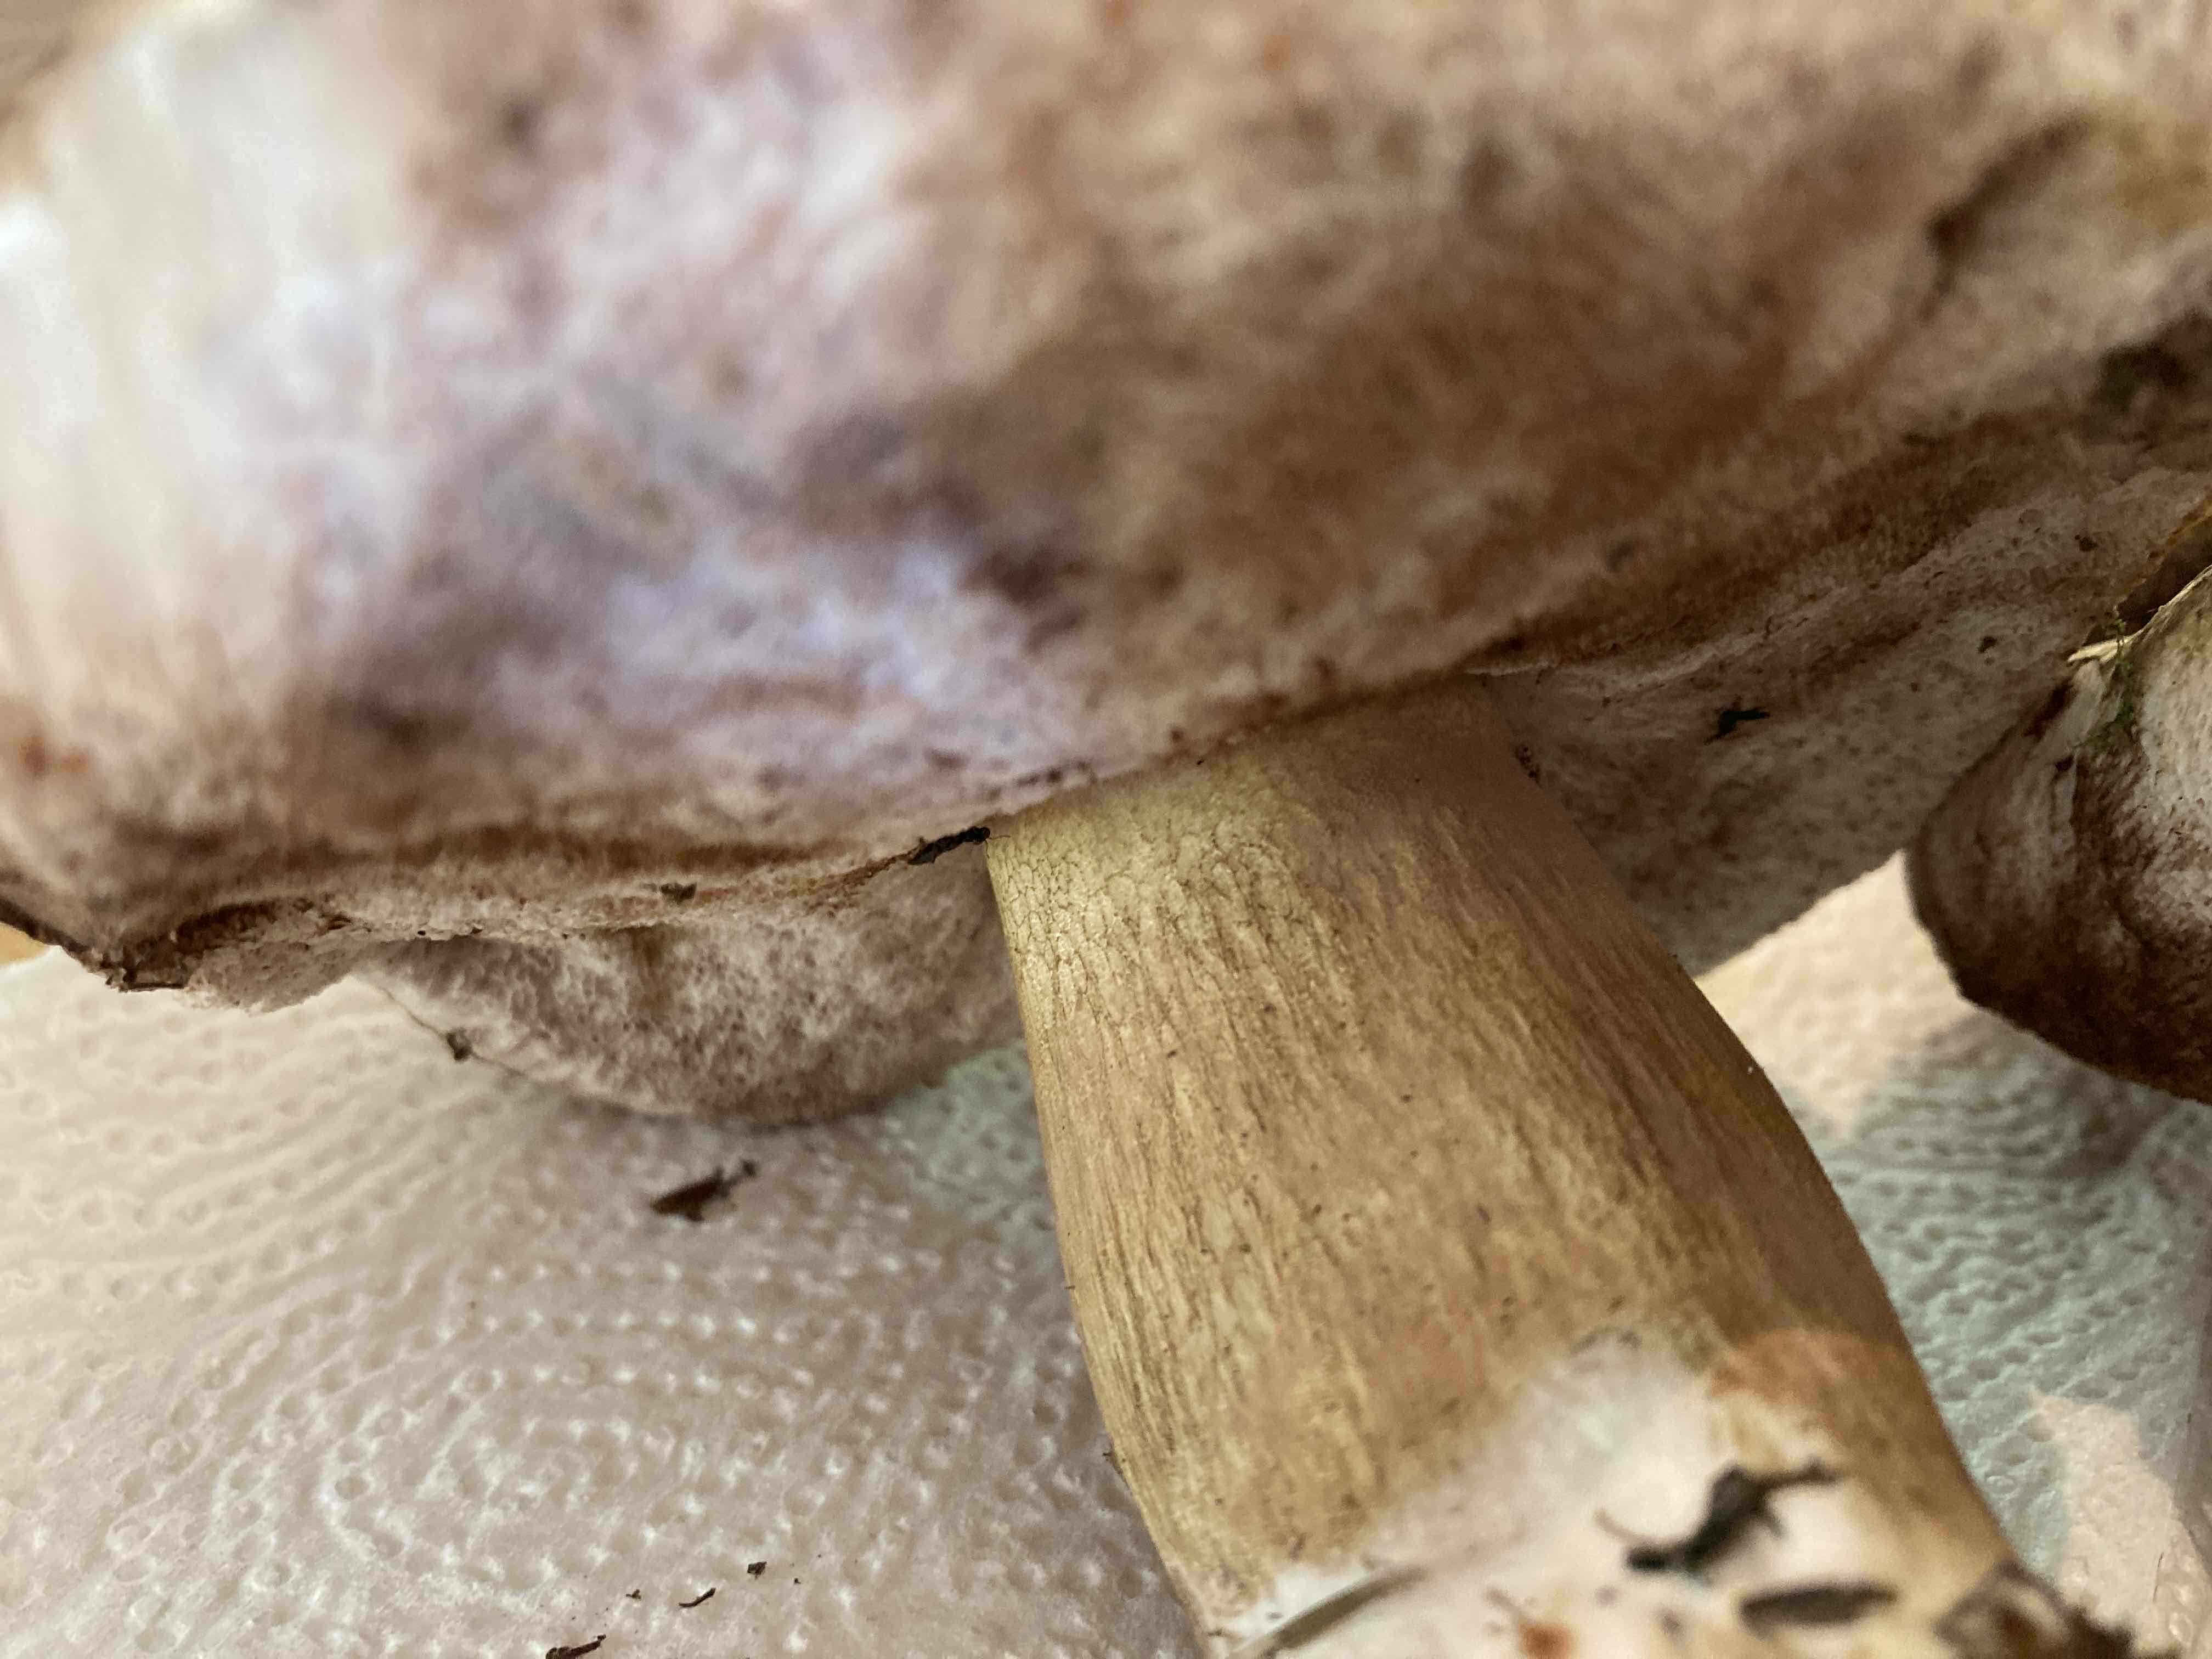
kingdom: Fungi
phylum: Basidiomycota
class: Agaricomycetes
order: Boletales
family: Boletaceae
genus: Tylopilus
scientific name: Tylopilus felleus
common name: galderørhat
